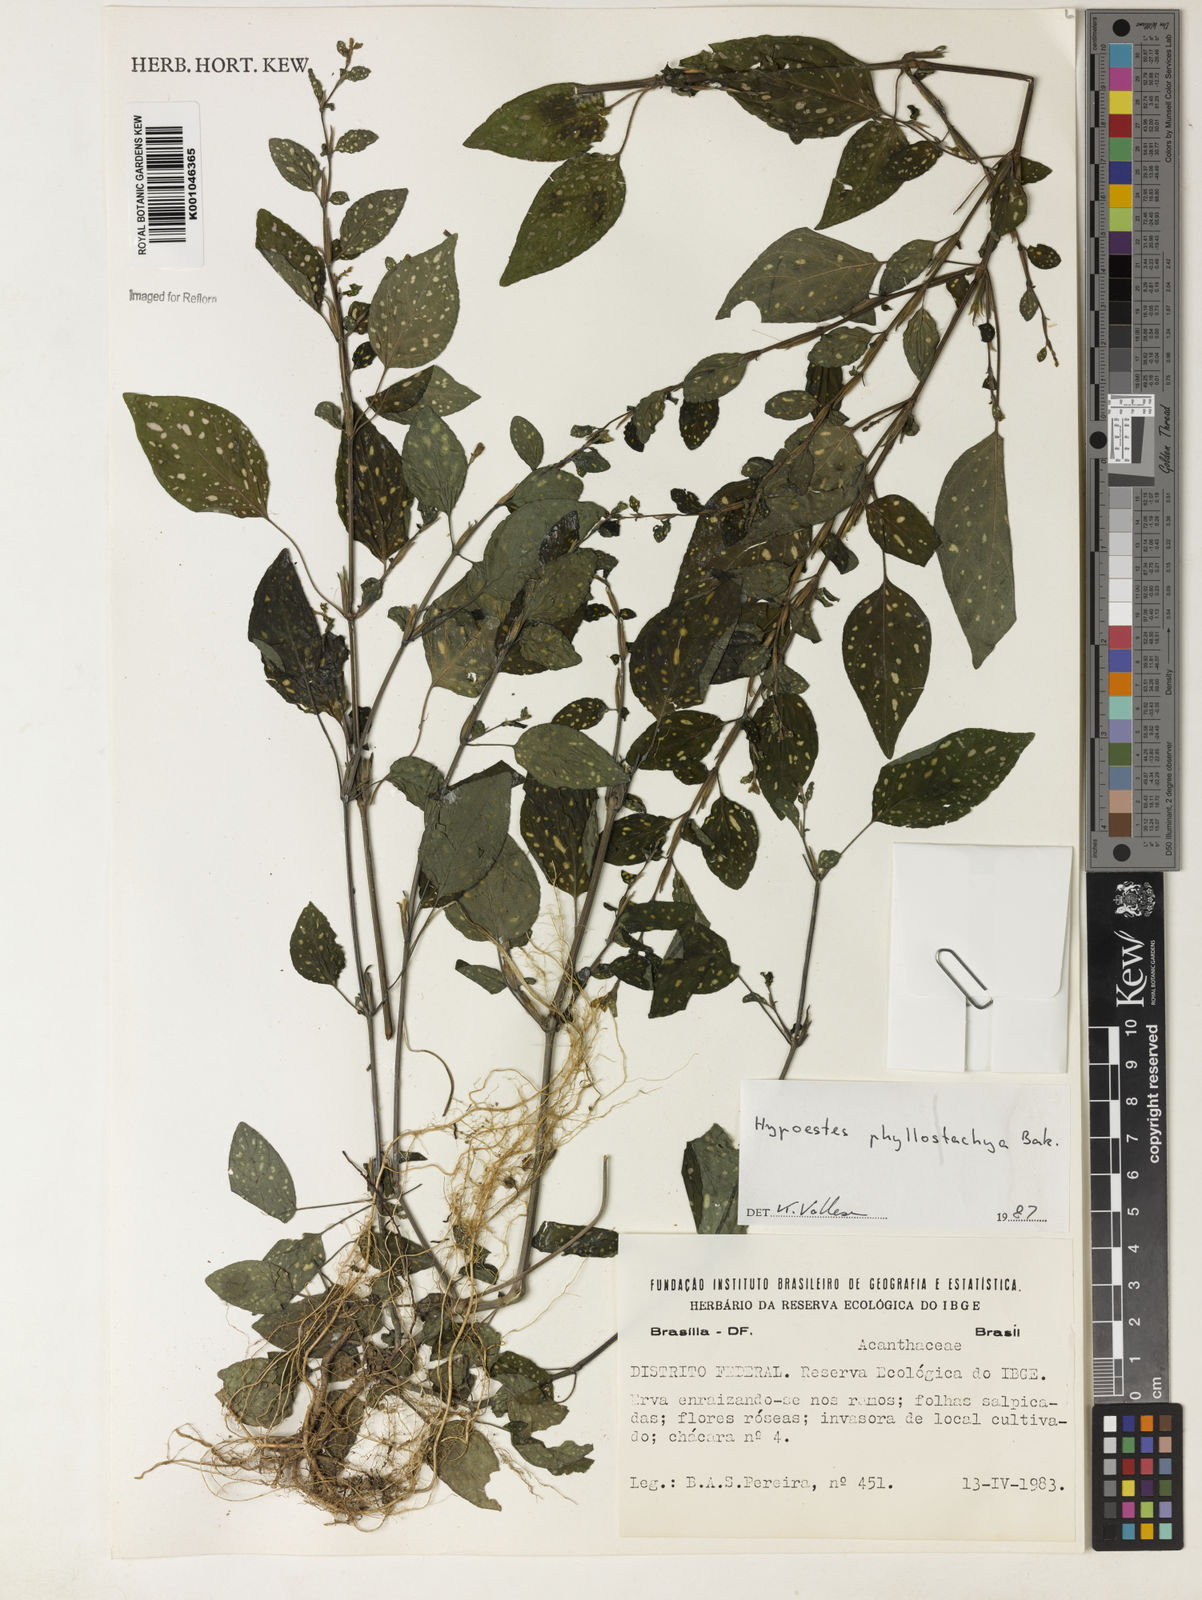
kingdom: Plantae
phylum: Tracheophyta
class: Magnoliopsida
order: Lamiales
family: Acanthaceae
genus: Hypoestes
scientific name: Hypoestes phyllostachya
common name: Polkadot-plant
